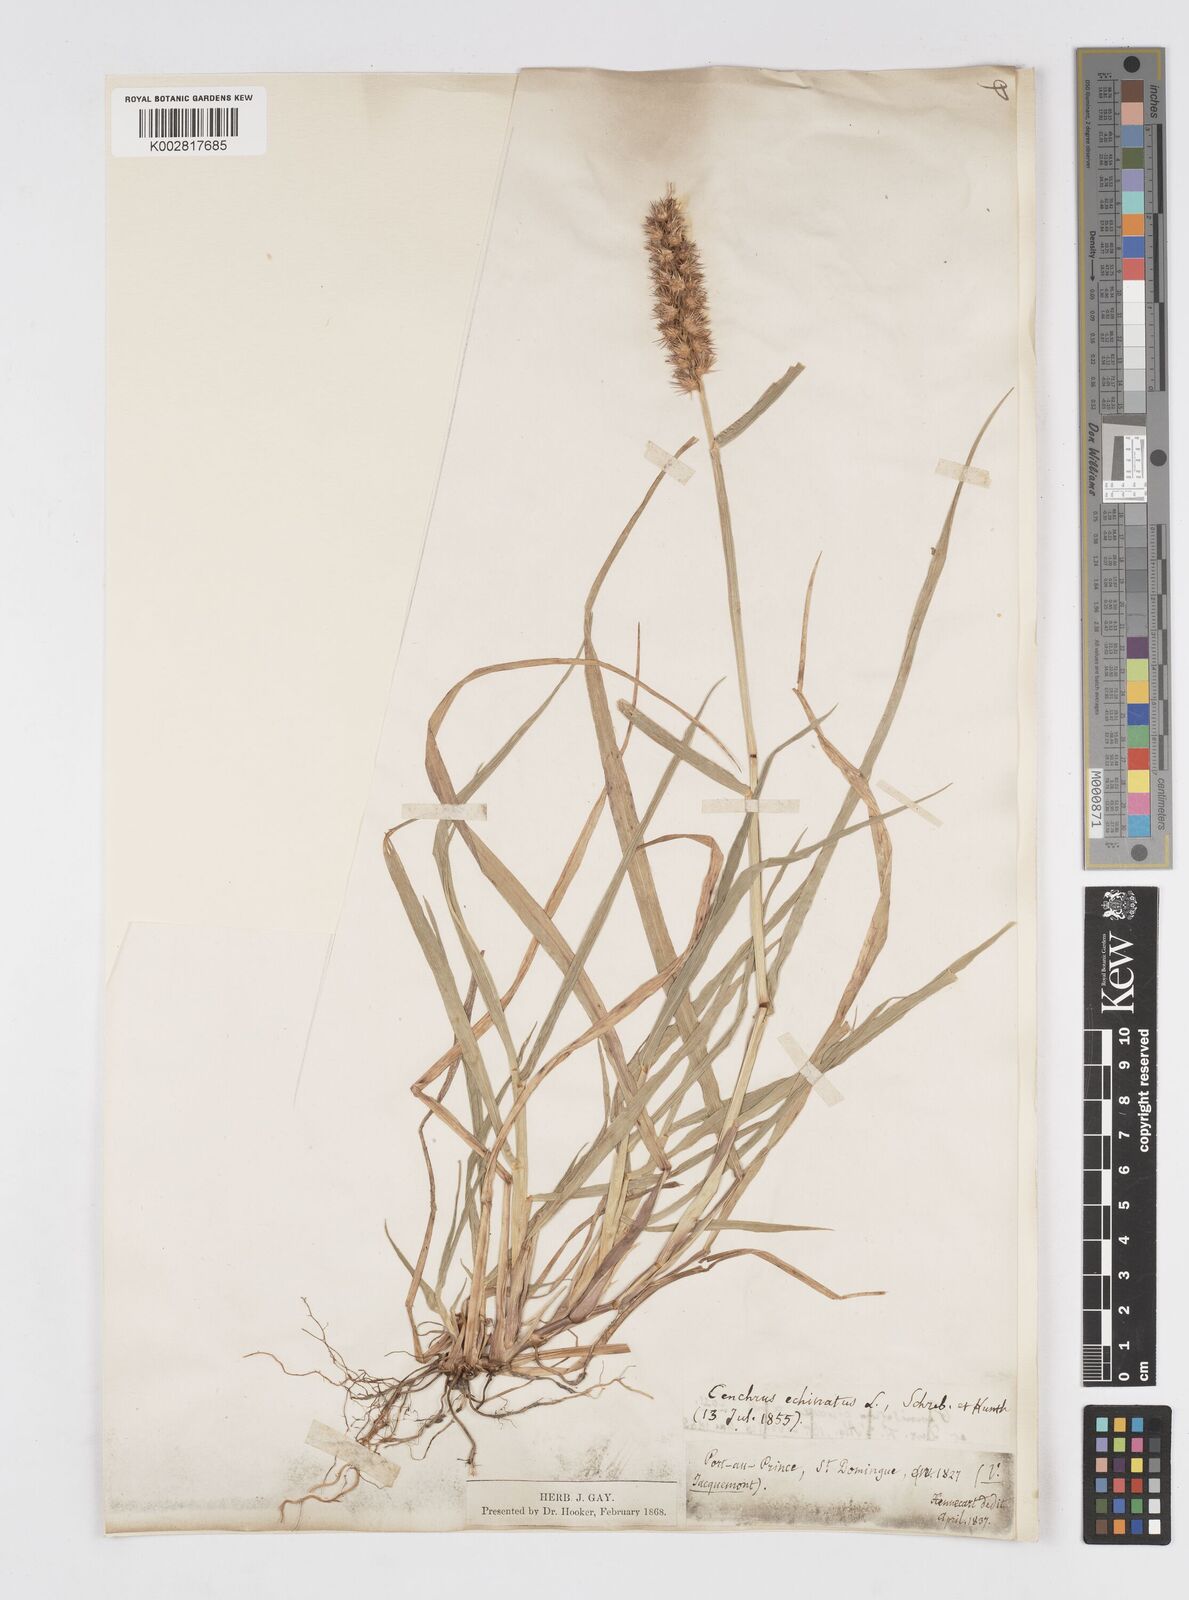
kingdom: Plantae
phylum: Tracheophyta
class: Liliopsida
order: Poales
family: Poaceae
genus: Cenchrus
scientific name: Cenchrus
